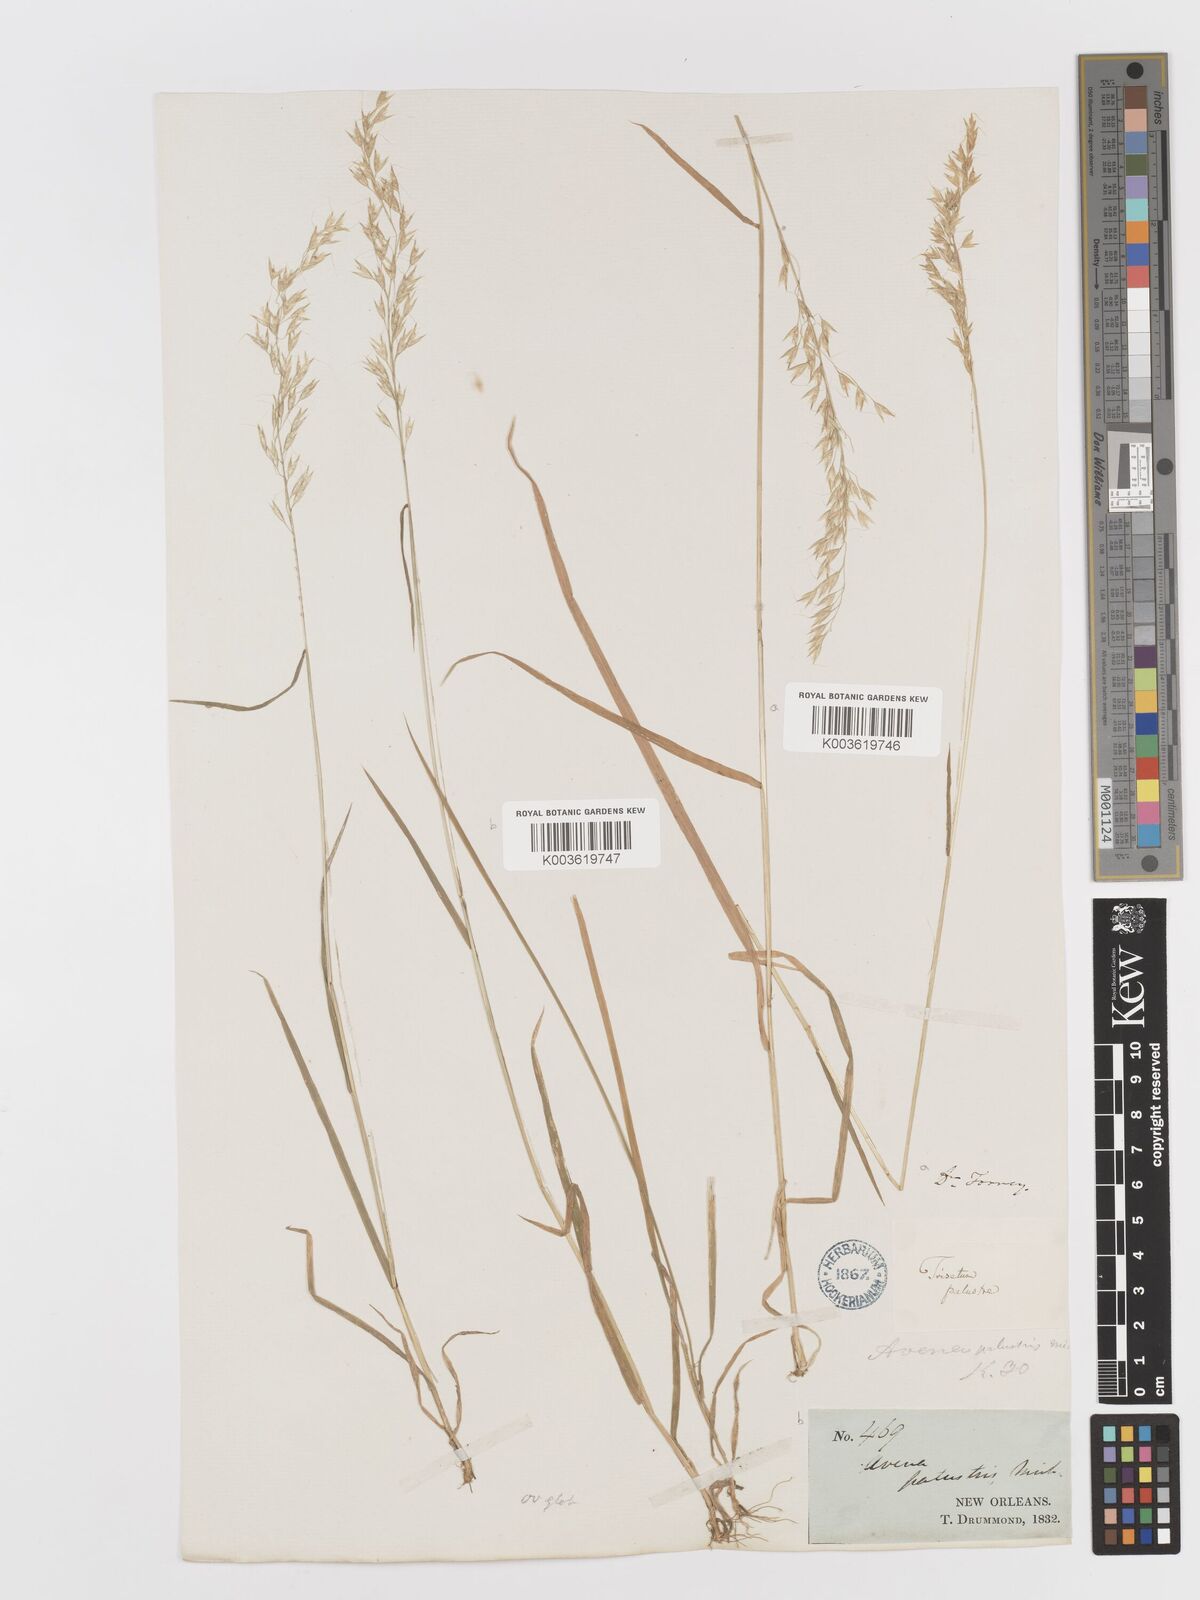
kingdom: Plantae
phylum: Tracheophyta
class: Liliopsida
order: Poales
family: Poaceae
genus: Sphenopholis
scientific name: Sphenopholis pensylvanica
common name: Swamp oats
